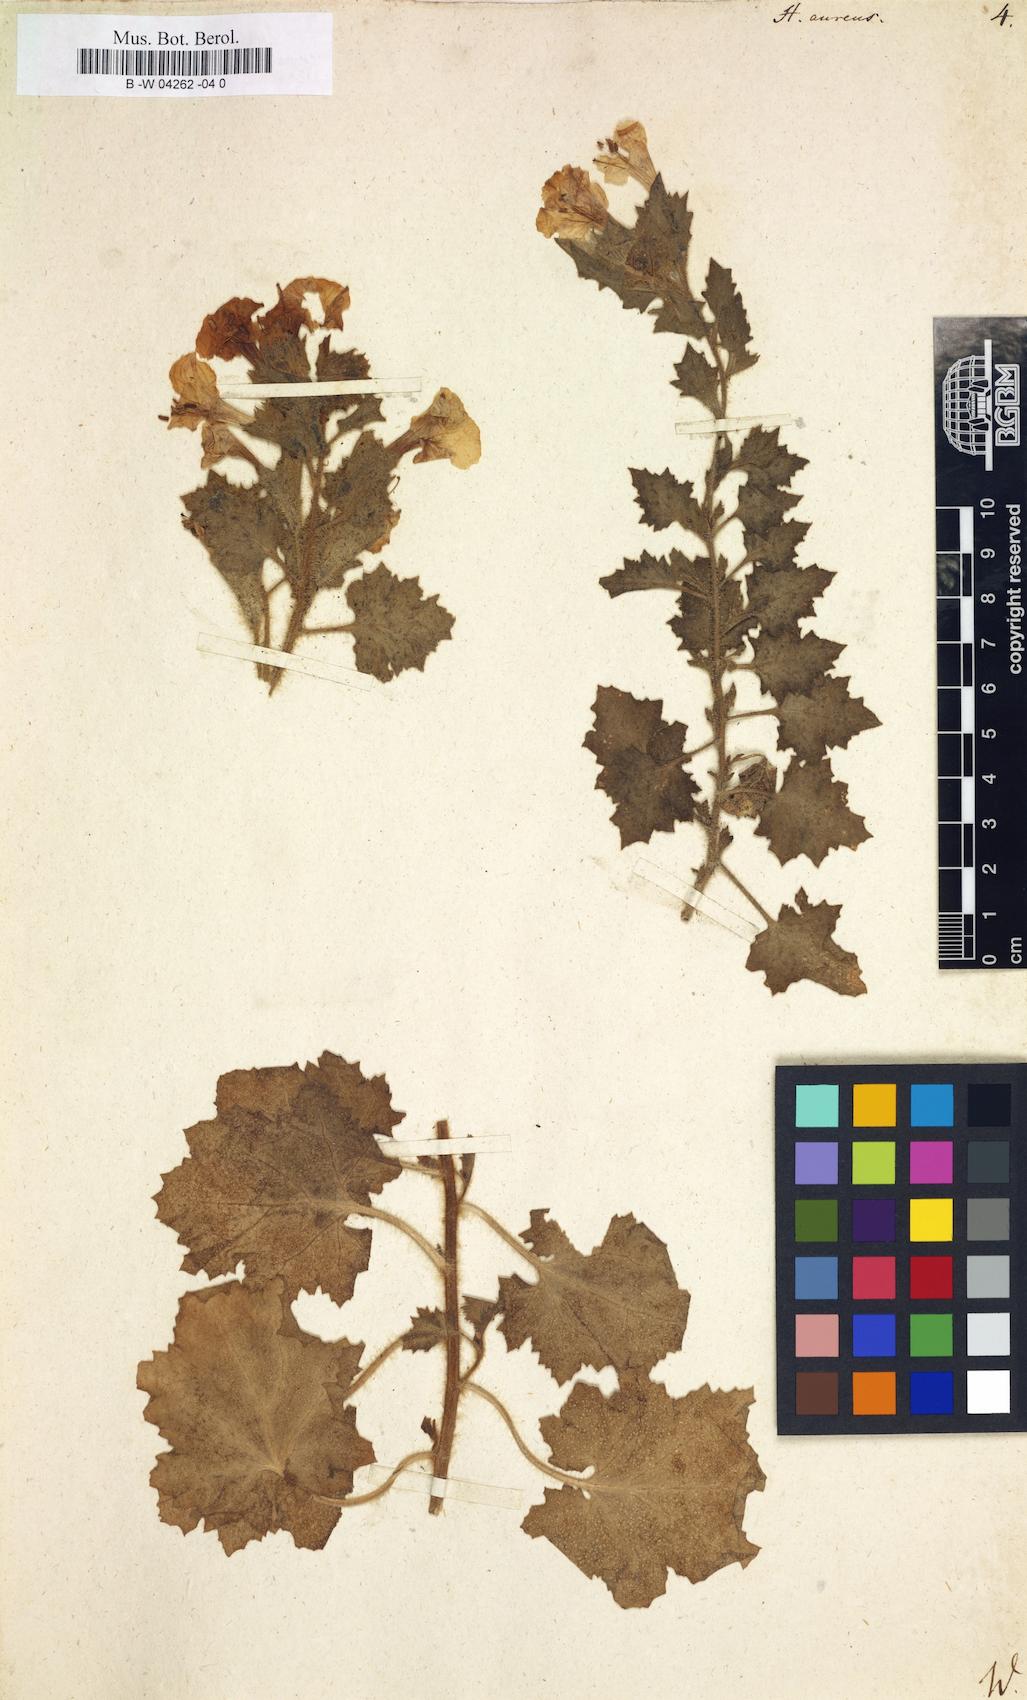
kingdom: Plantae
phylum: Tracheophyta
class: Magnoliopsida
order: Solanales
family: Solanaceae
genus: Hyoscyamus
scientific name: Hyoscyamus aureus
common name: Golden henbane
